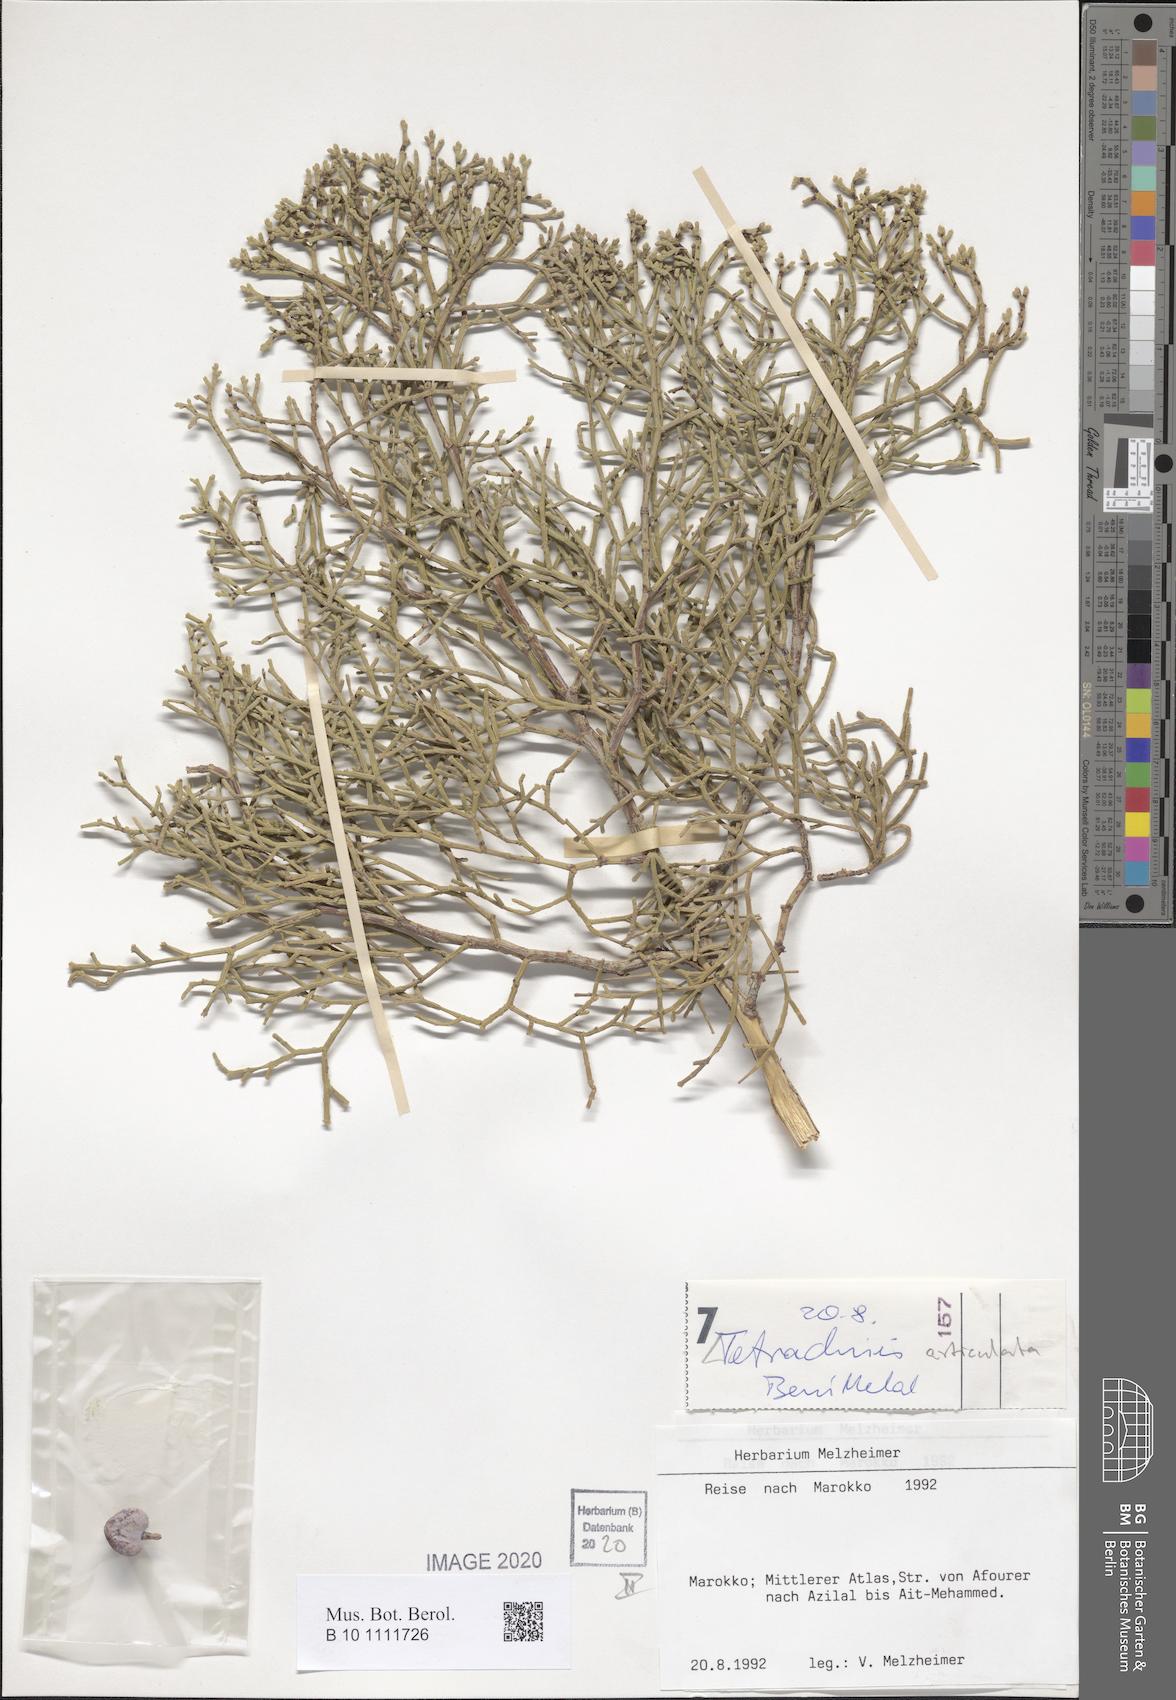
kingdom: Plantae
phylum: Tracheophyta
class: Pinopsida
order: Pinales
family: Cupressaceae
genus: Tetraclinis
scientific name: Tetraclinis articulata
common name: Sandarac
